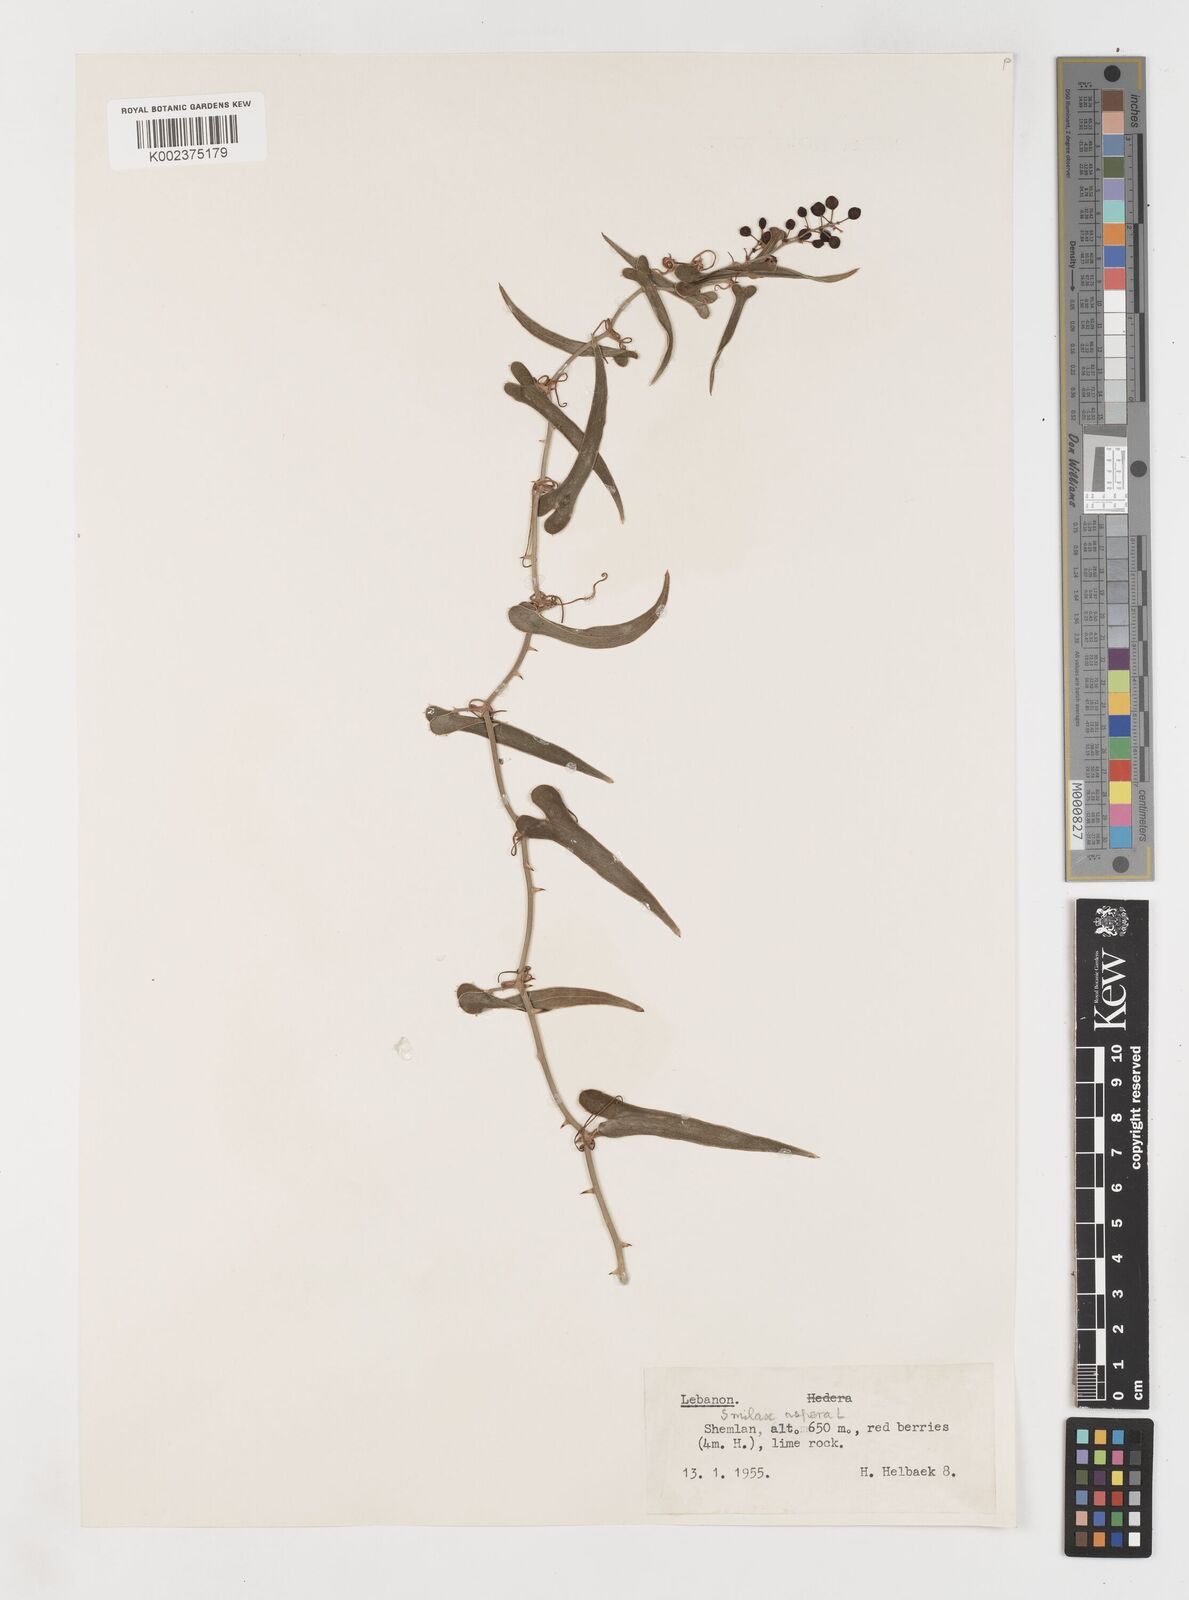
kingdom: Plantae
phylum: Tracheophyta
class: Liliopsida
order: Liliales
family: Smilacaceae
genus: Smilax
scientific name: Smilax aspera
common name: Common smilax
